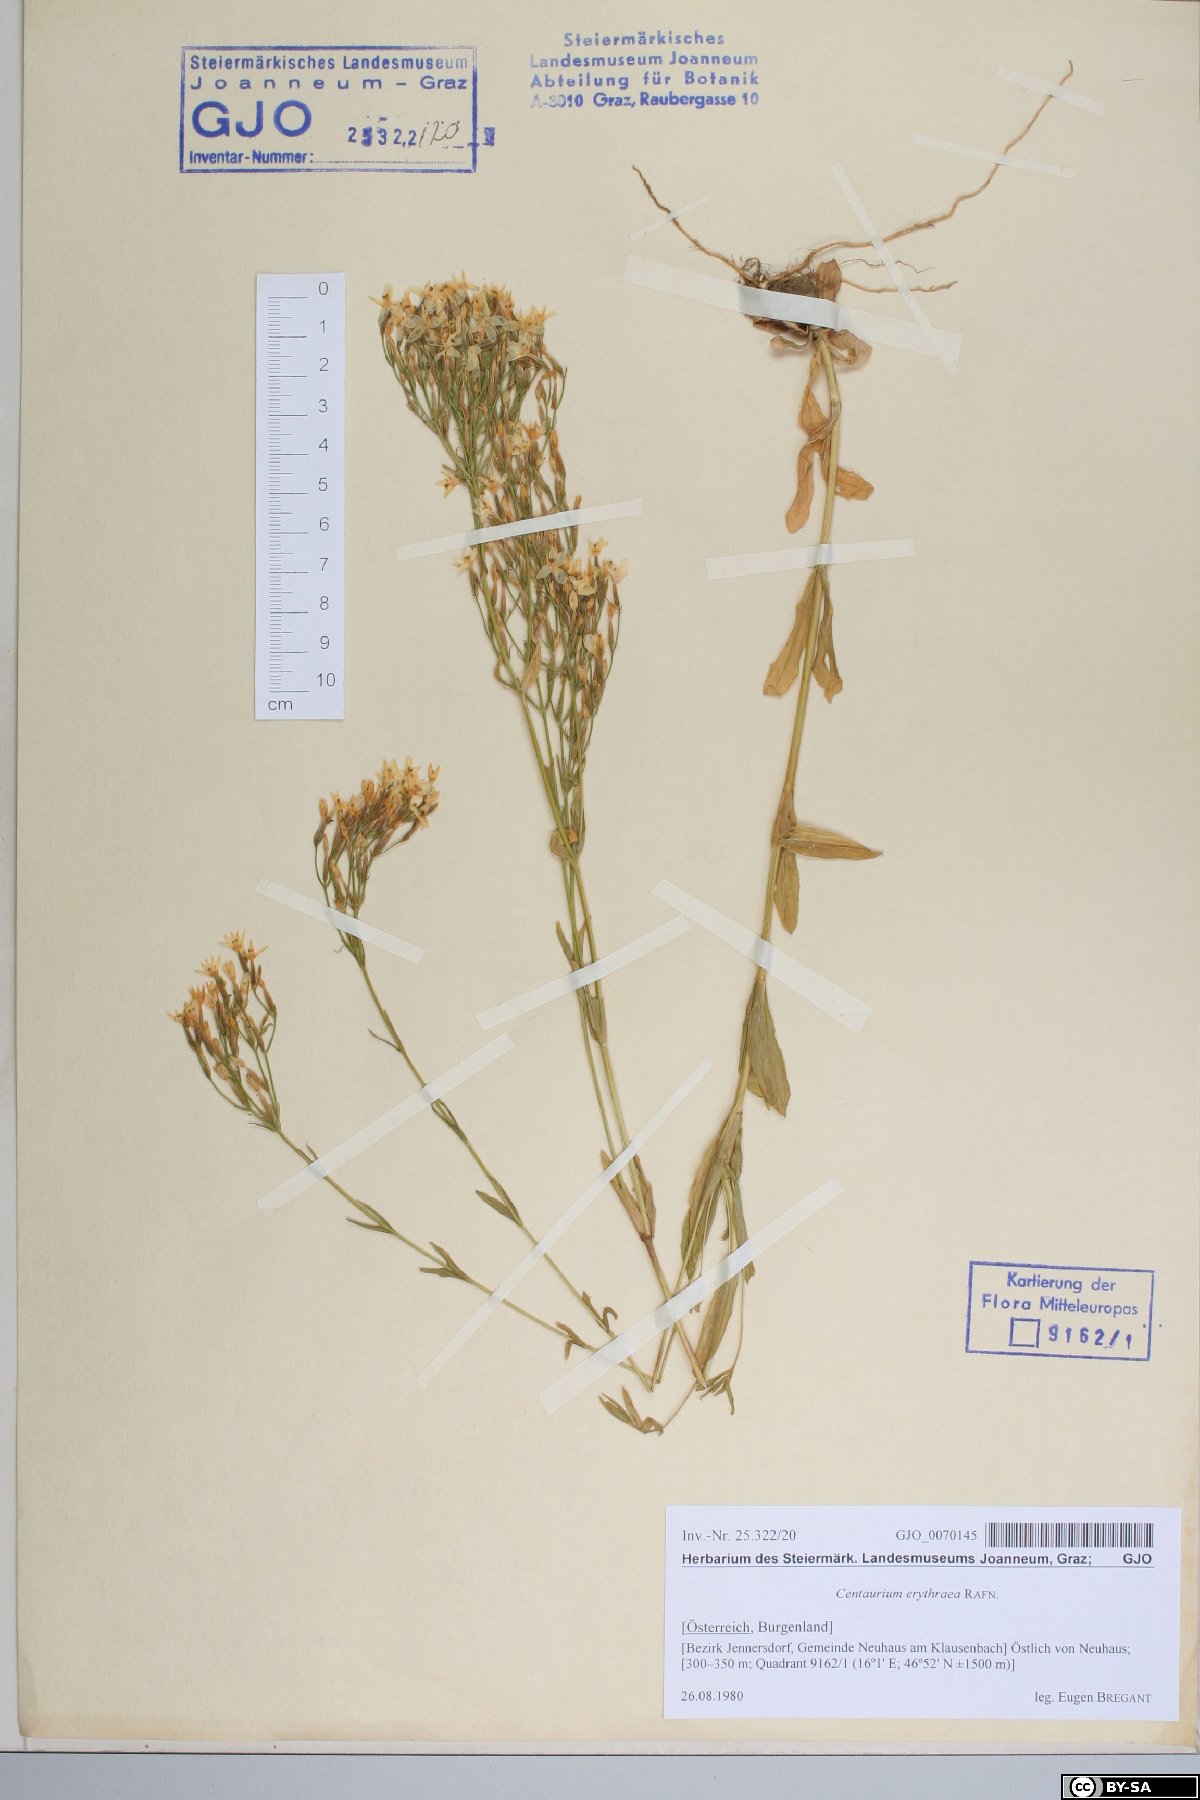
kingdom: Plantae
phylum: Tracheophyta
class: Magnoliopsida
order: Gentianales
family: Gentianaceae
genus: Centaurium
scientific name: Centaurium erythraea
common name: Common centaury
